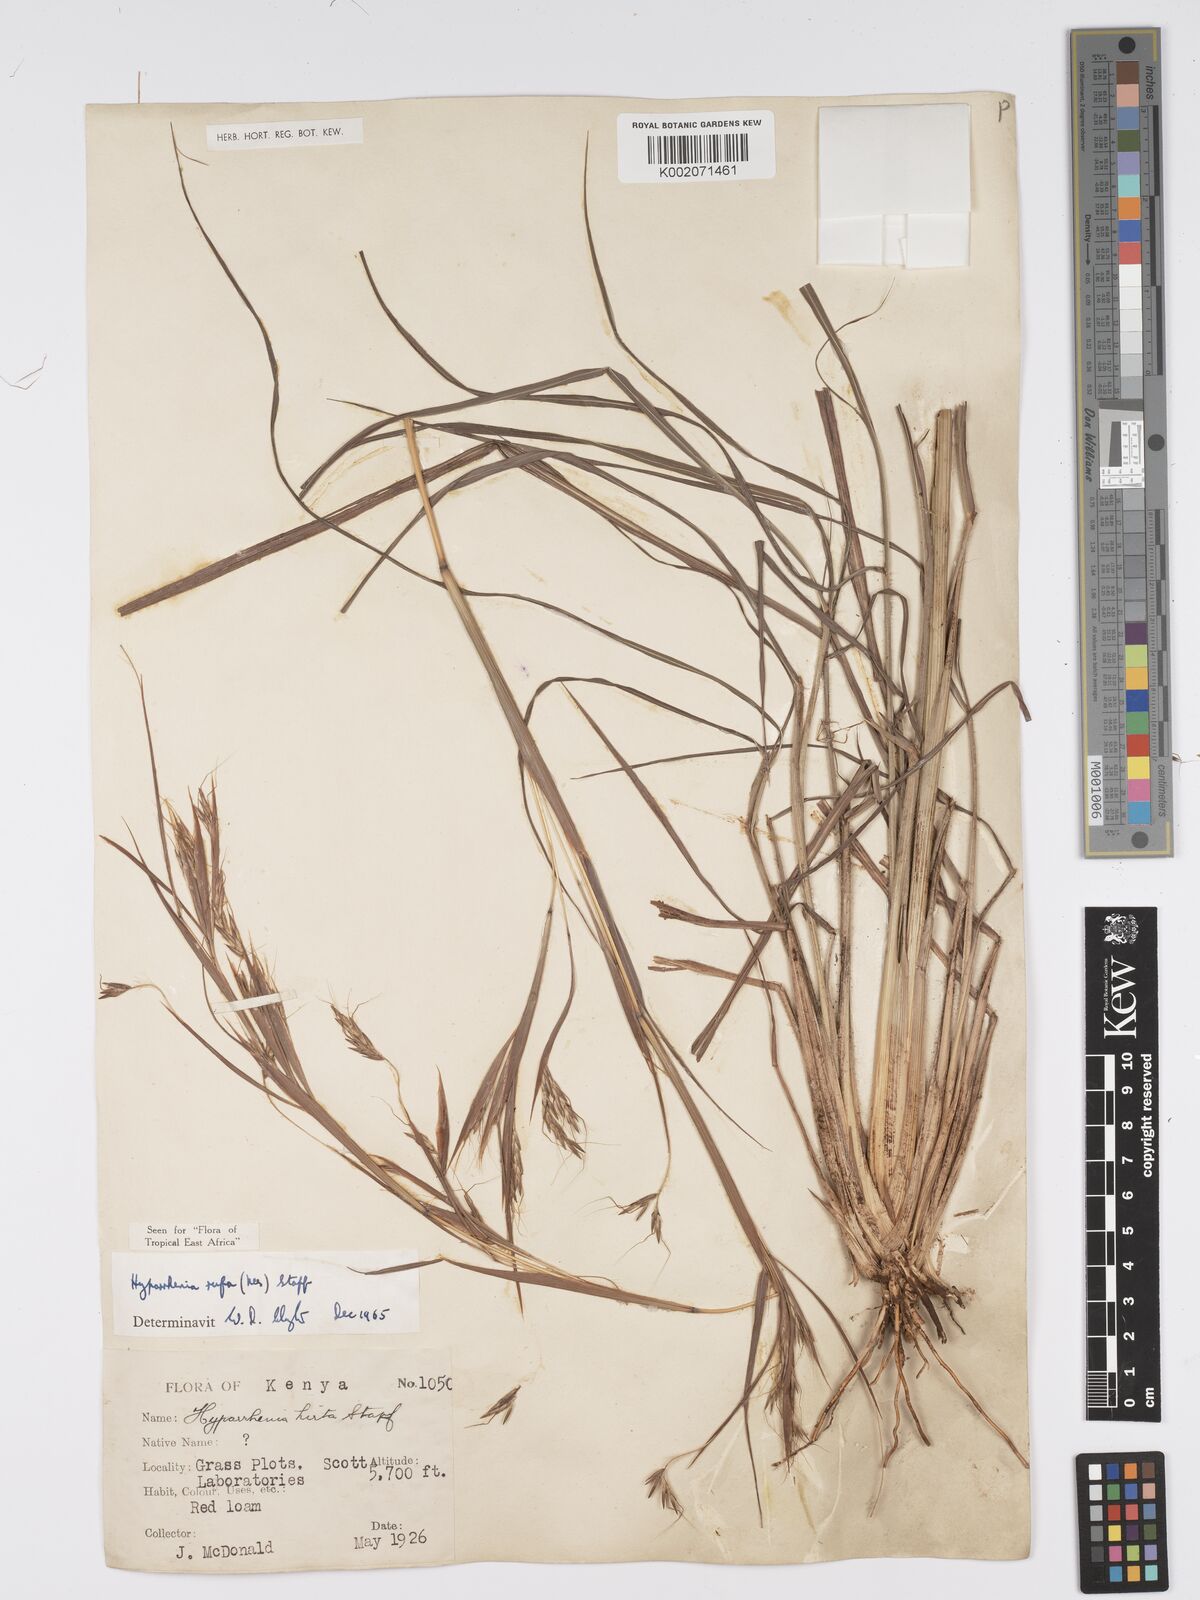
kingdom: Plantae
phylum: Tracheophyta
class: Liliopsida
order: Poales
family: Poaceae
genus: Hyparrhenia
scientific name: Hyparrhenia rufa
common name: Jaraguagrass
